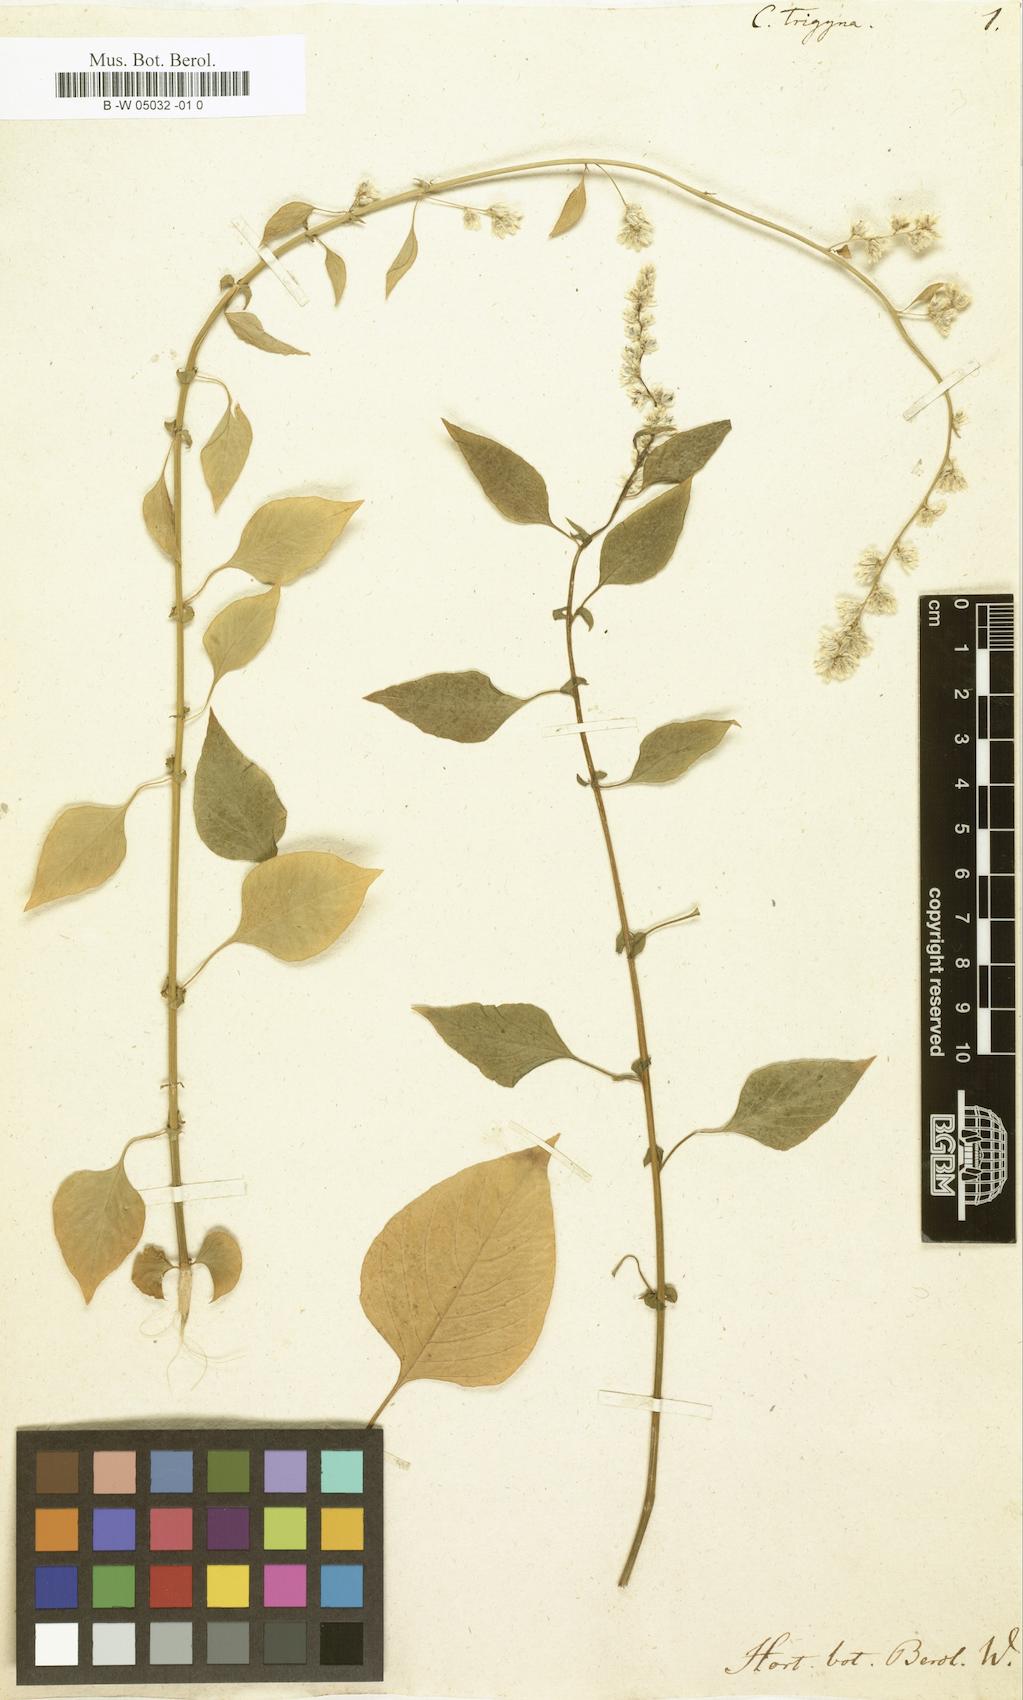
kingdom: Plantae
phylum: Tracheophyta
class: Magnoliopsida
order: Caryophyllales
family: Amaranthaceae
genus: Celosia
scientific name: Celosia trigyna
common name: Woolflower
